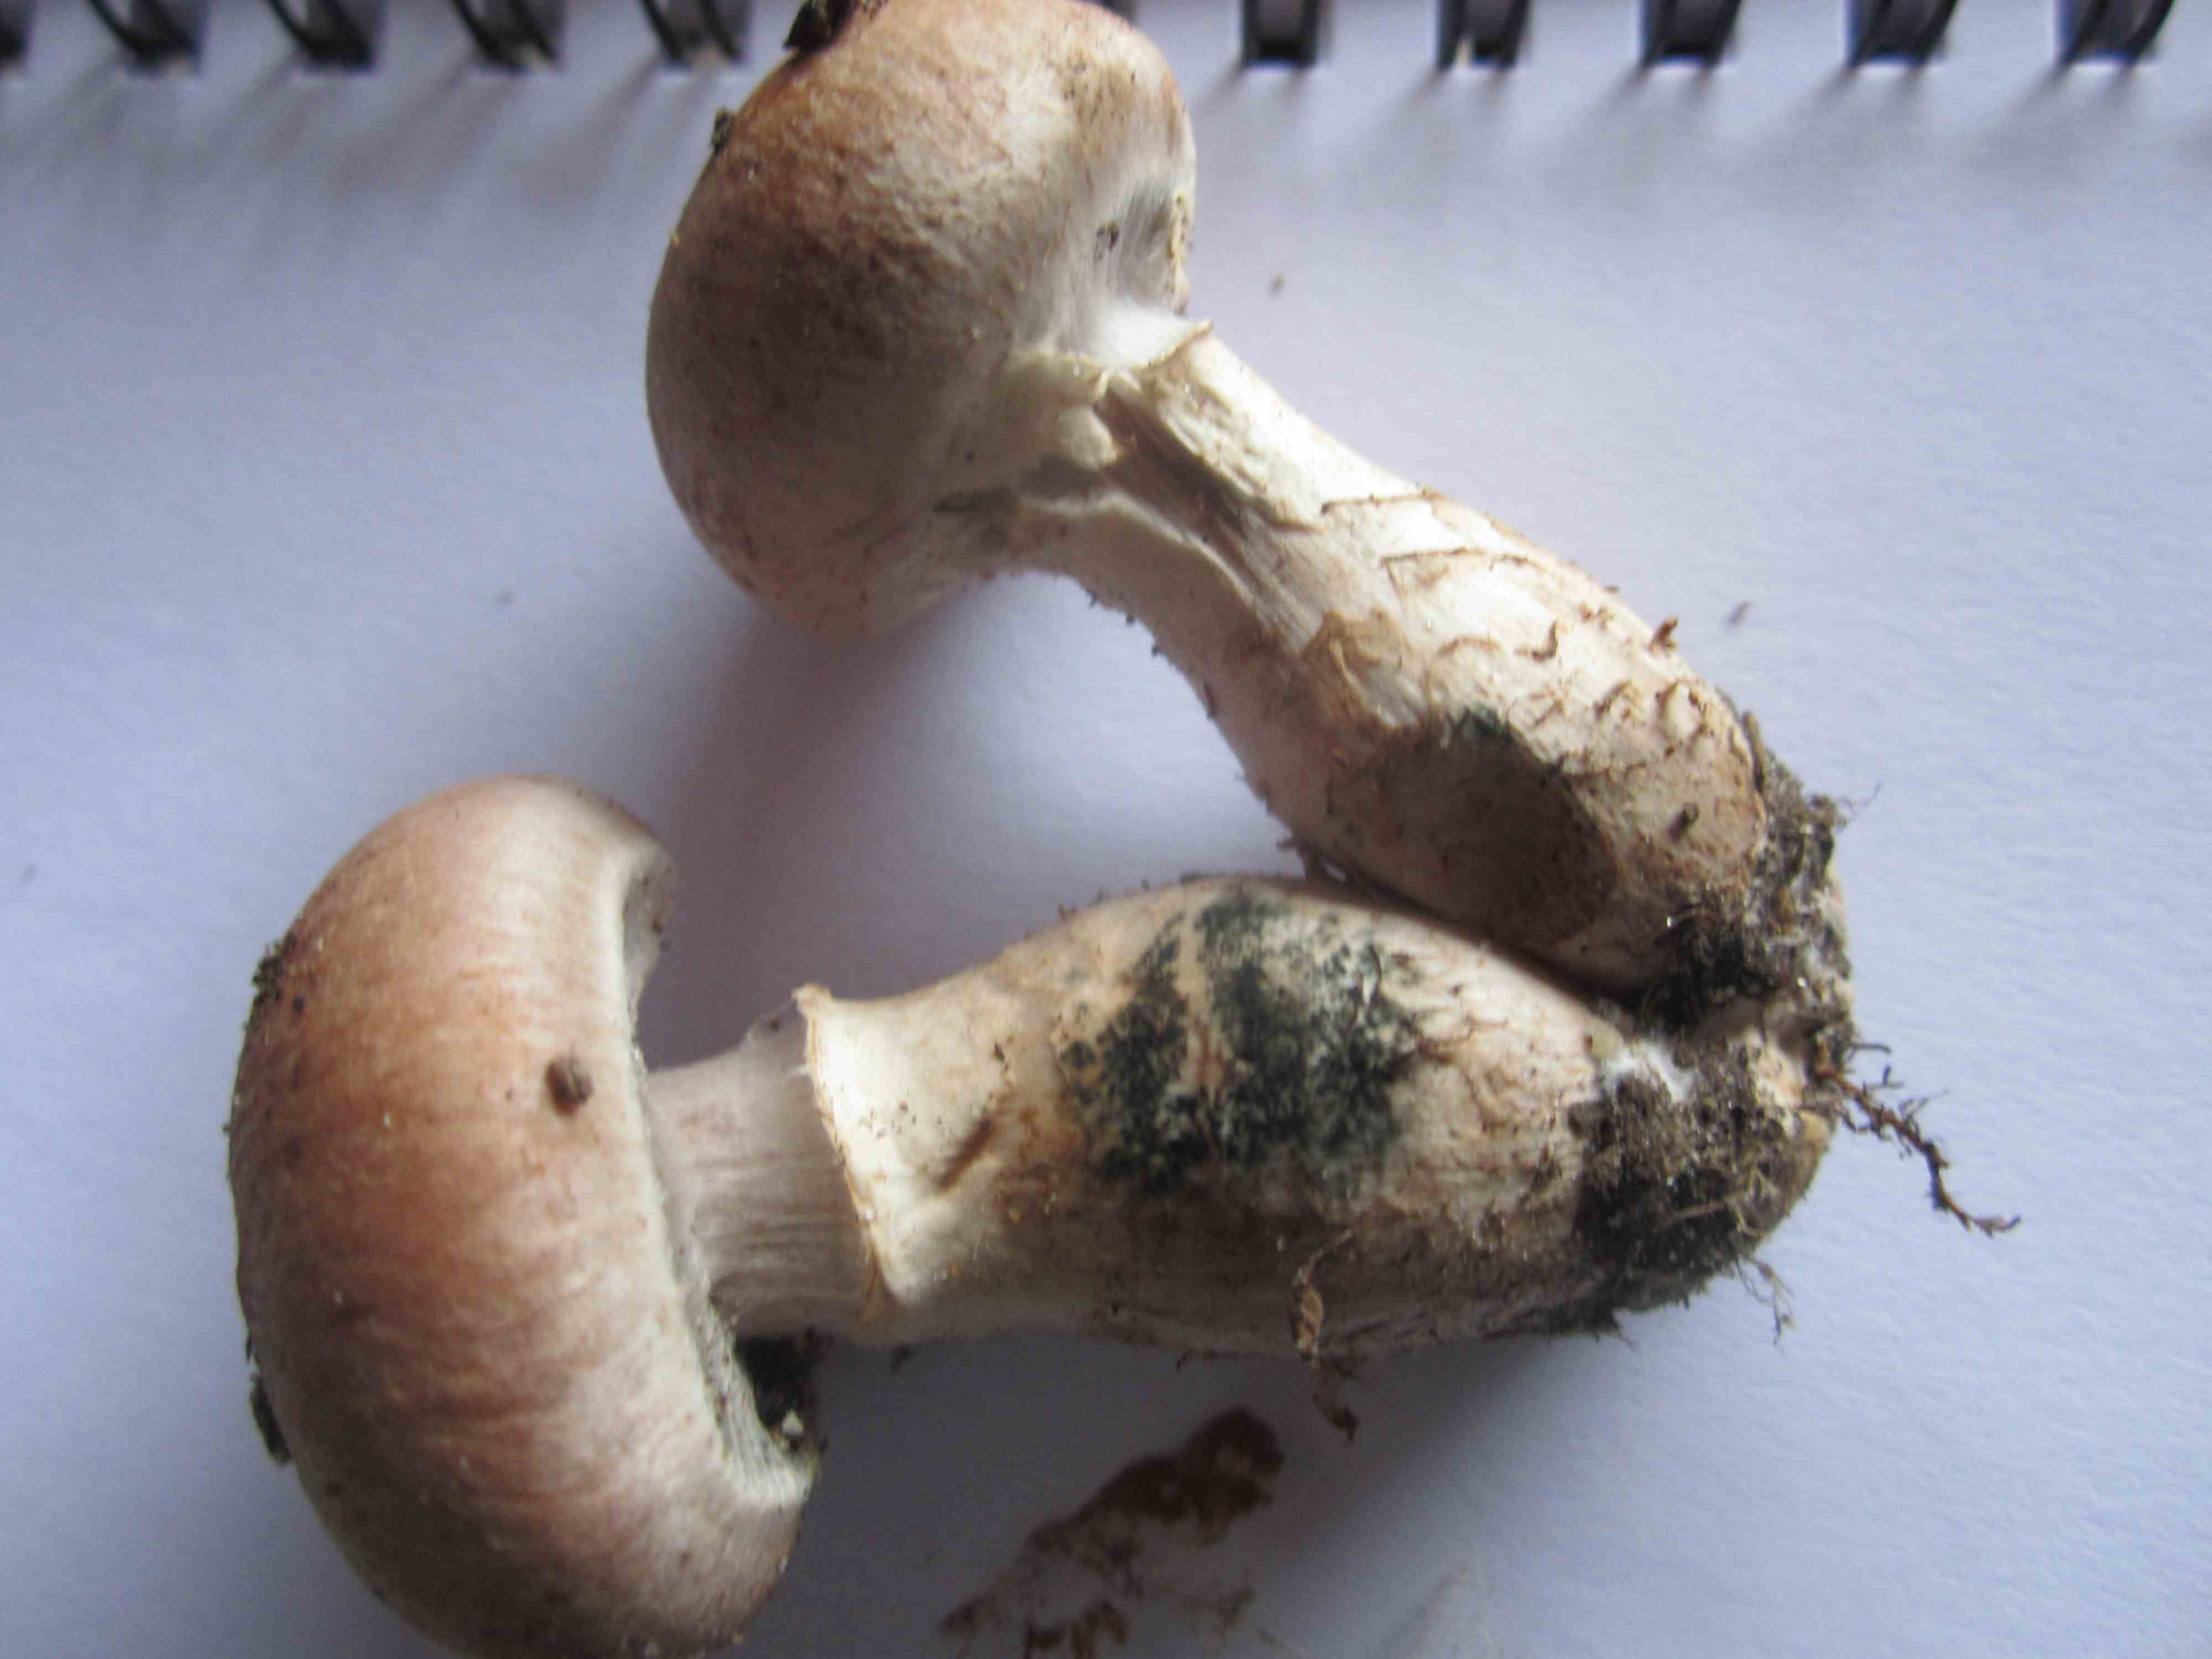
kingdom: Fungi
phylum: Basidiomycota
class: Agaricomycetes
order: Agaricales
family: Cortinariaceae
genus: Cortinarius
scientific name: Cortinarius torvus
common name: champignonagtig slørhat
